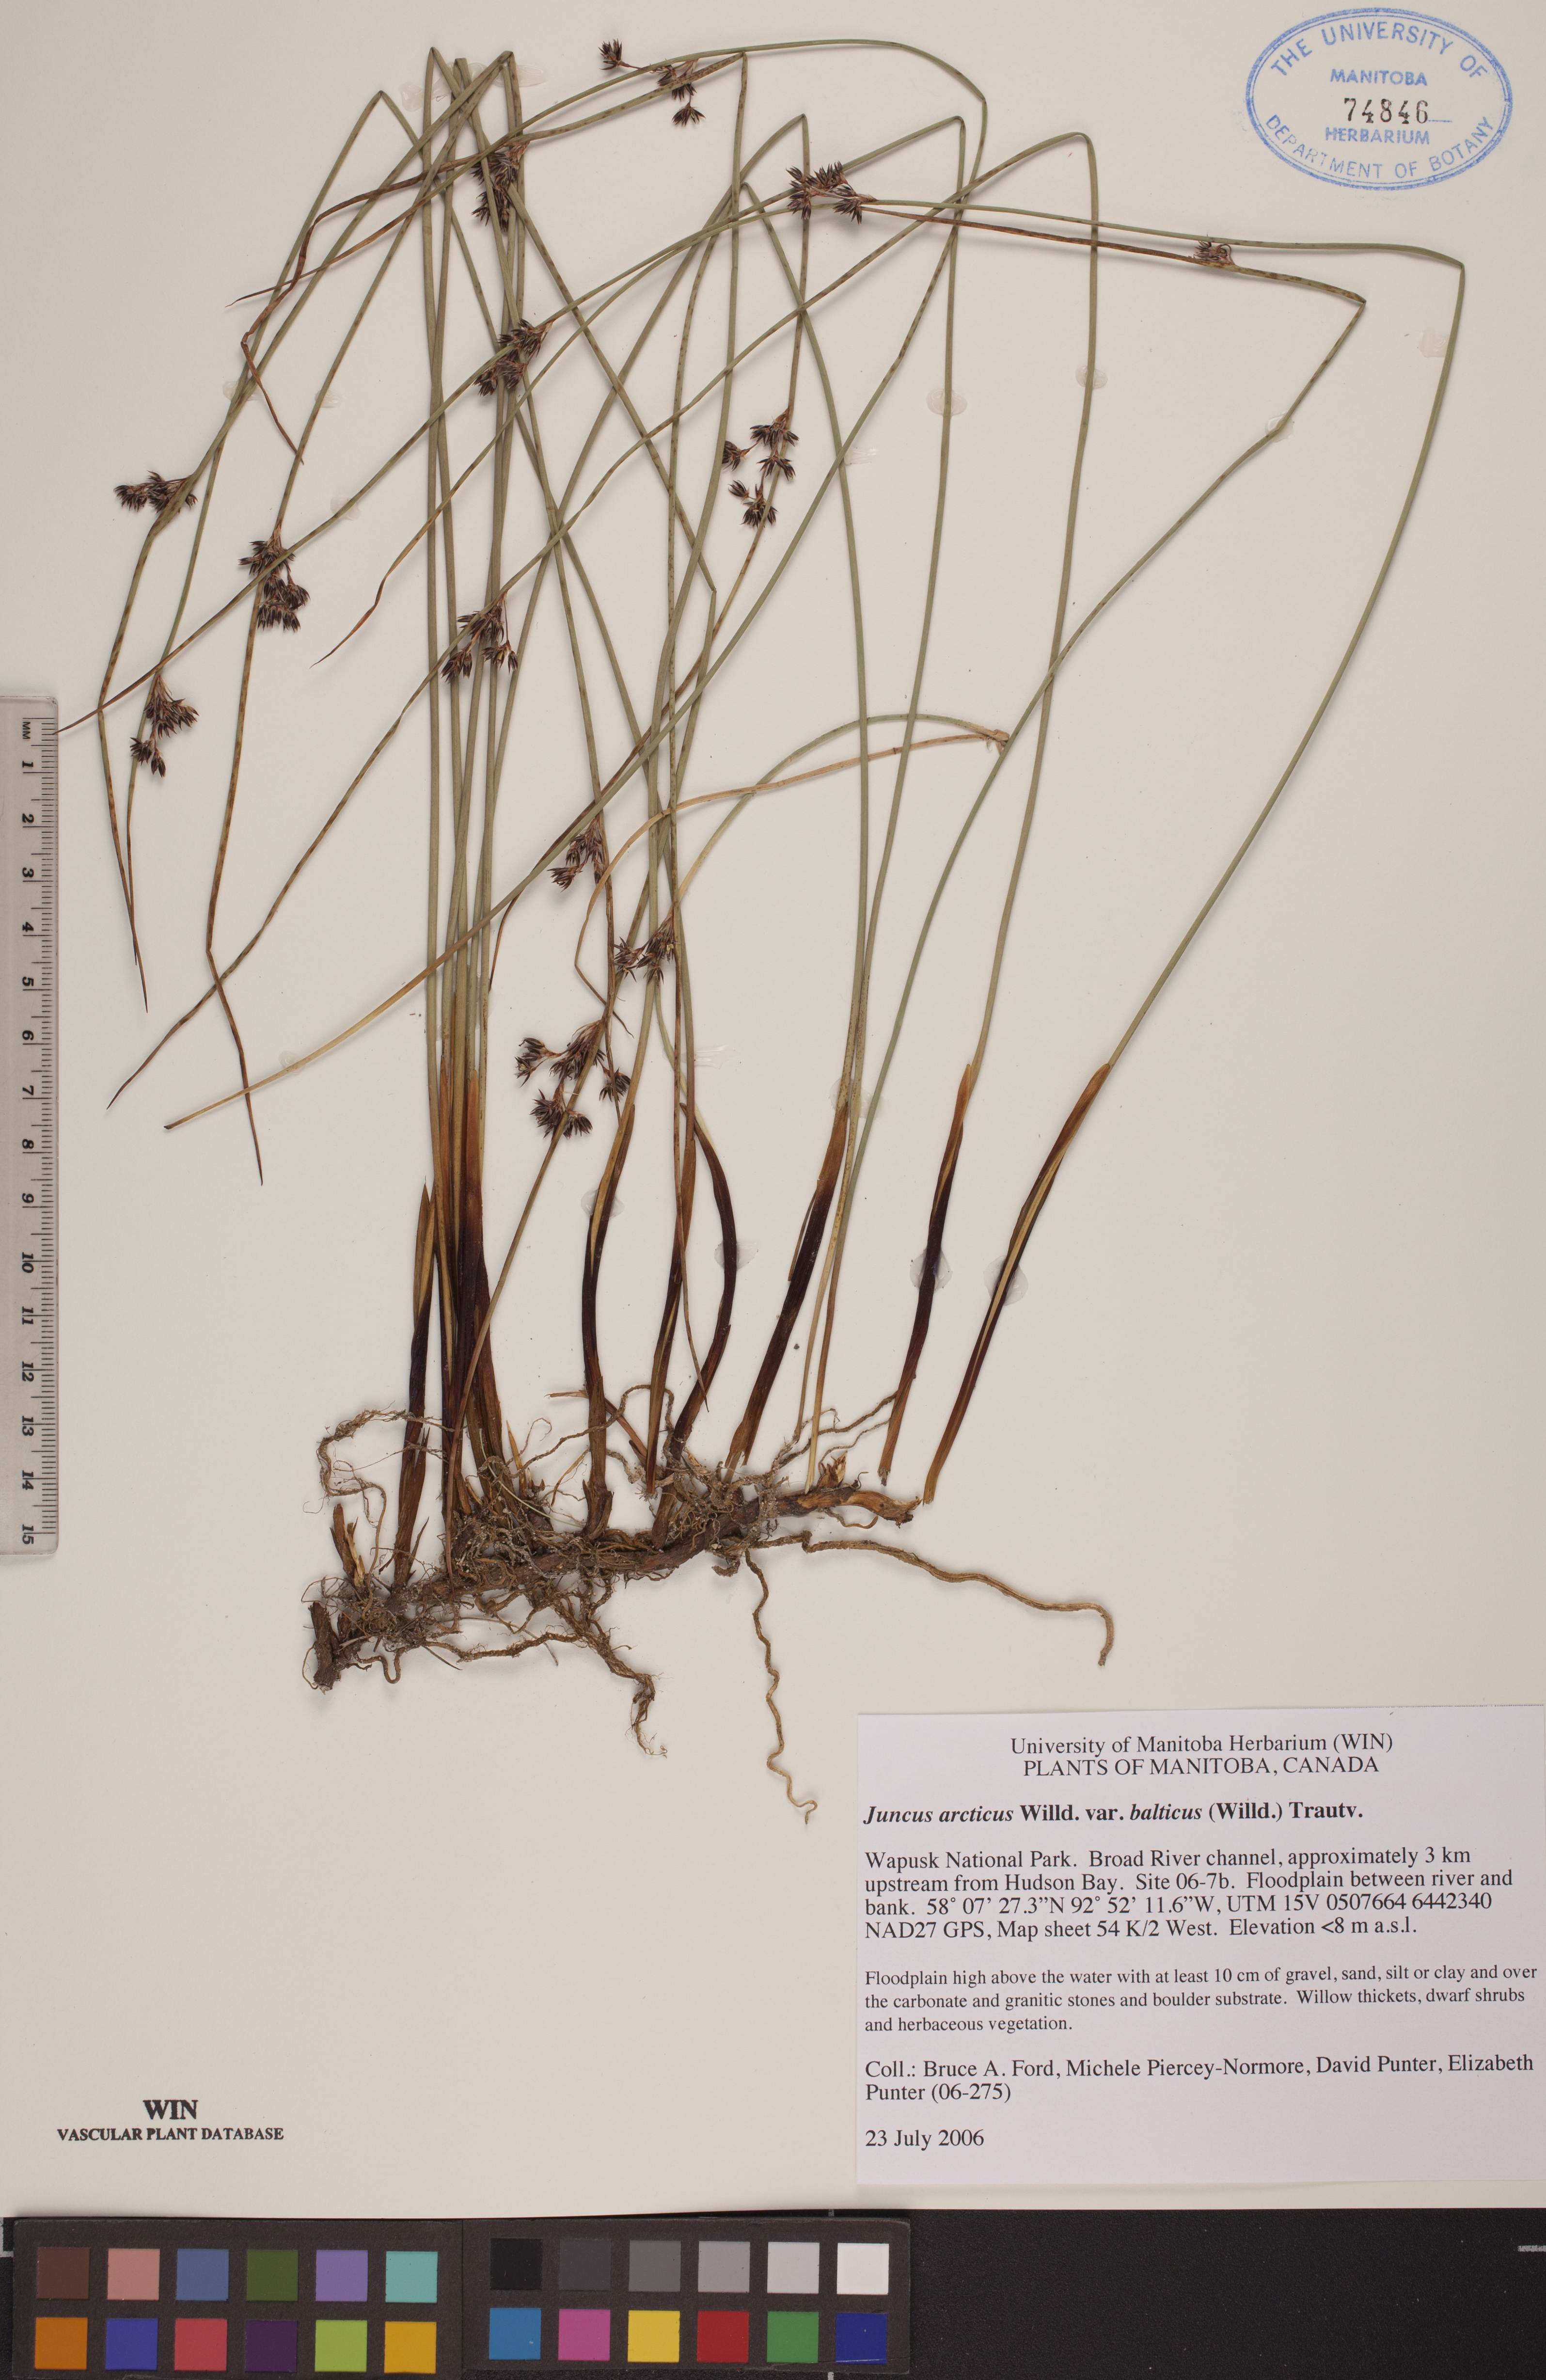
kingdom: Plantae
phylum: Tracheophyta
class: Liliopsida
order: Poales
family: Juncaceae
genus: Juncus
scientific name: Juncus balticus
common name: Baltic rush
